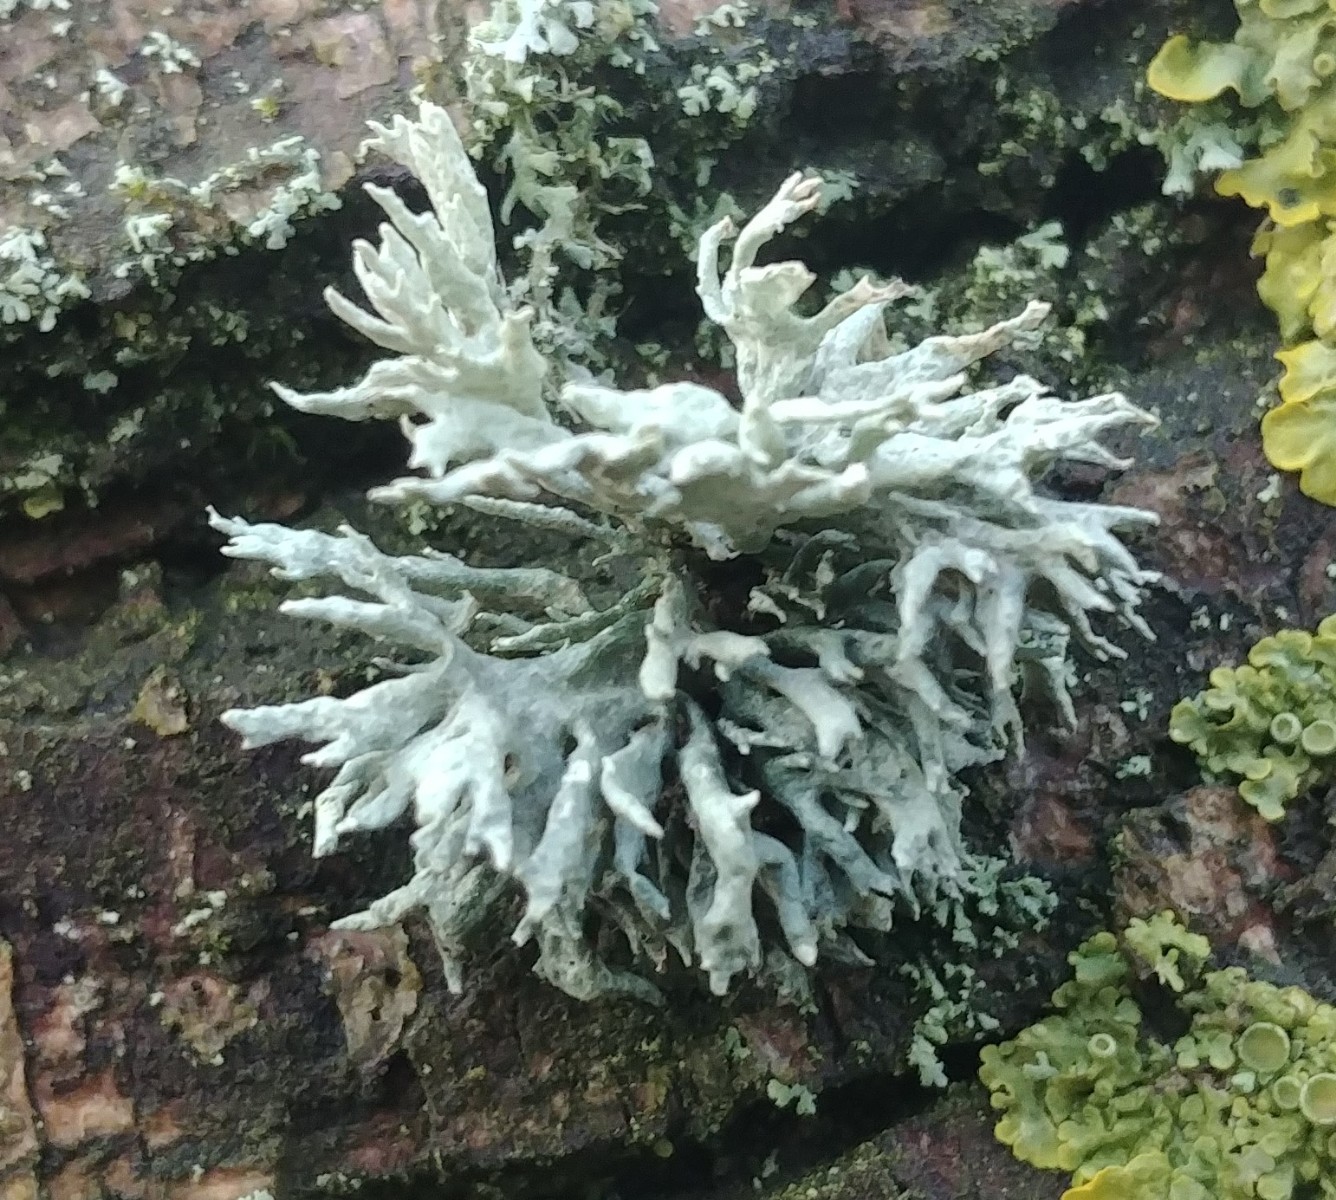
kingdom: Fungi
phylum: Ascomycota
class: Lecanoromycetes
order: Lecanorales
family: Ramalinaceae
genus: Ramalina
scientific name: Ramalina fastigiata
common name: tue-grenlav
